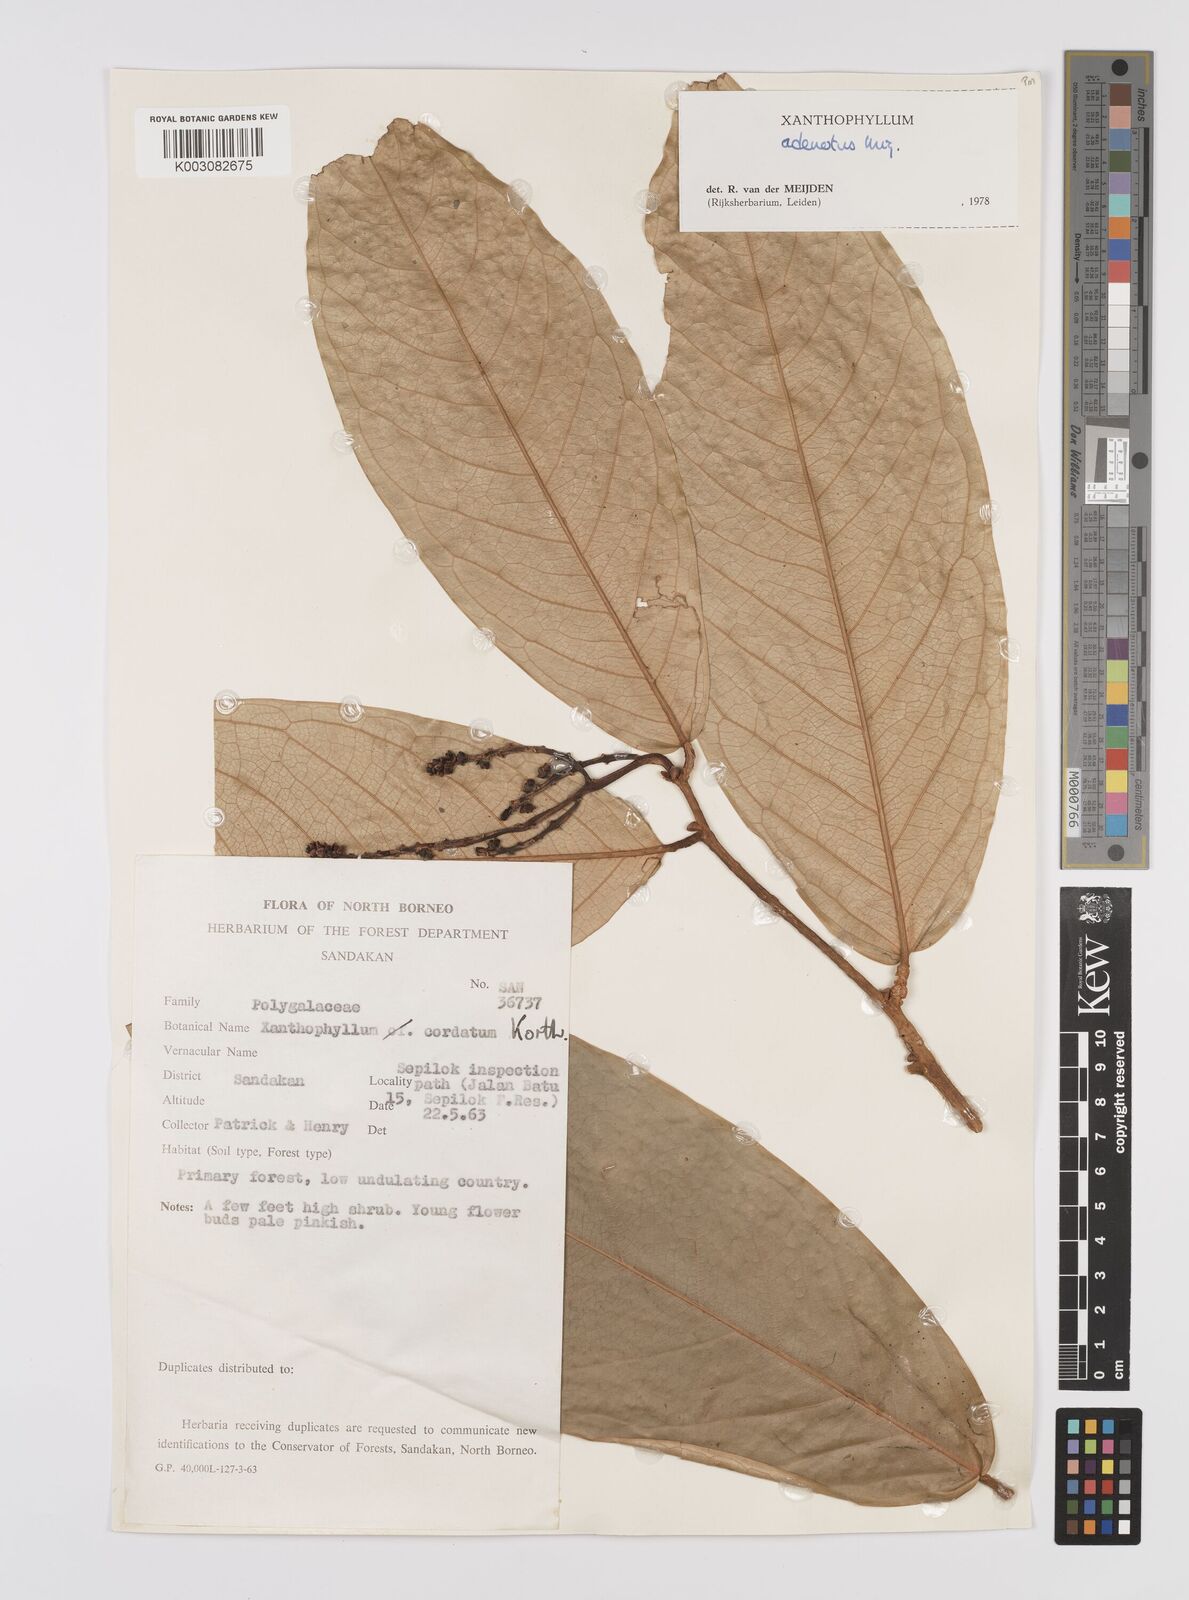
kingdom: Plantae
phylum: Tracheophyta
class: Magnoliopsida
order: Fabales
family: Polygalaceae
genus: Xanthophyllum
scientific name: Xanthophyllum adenotus
